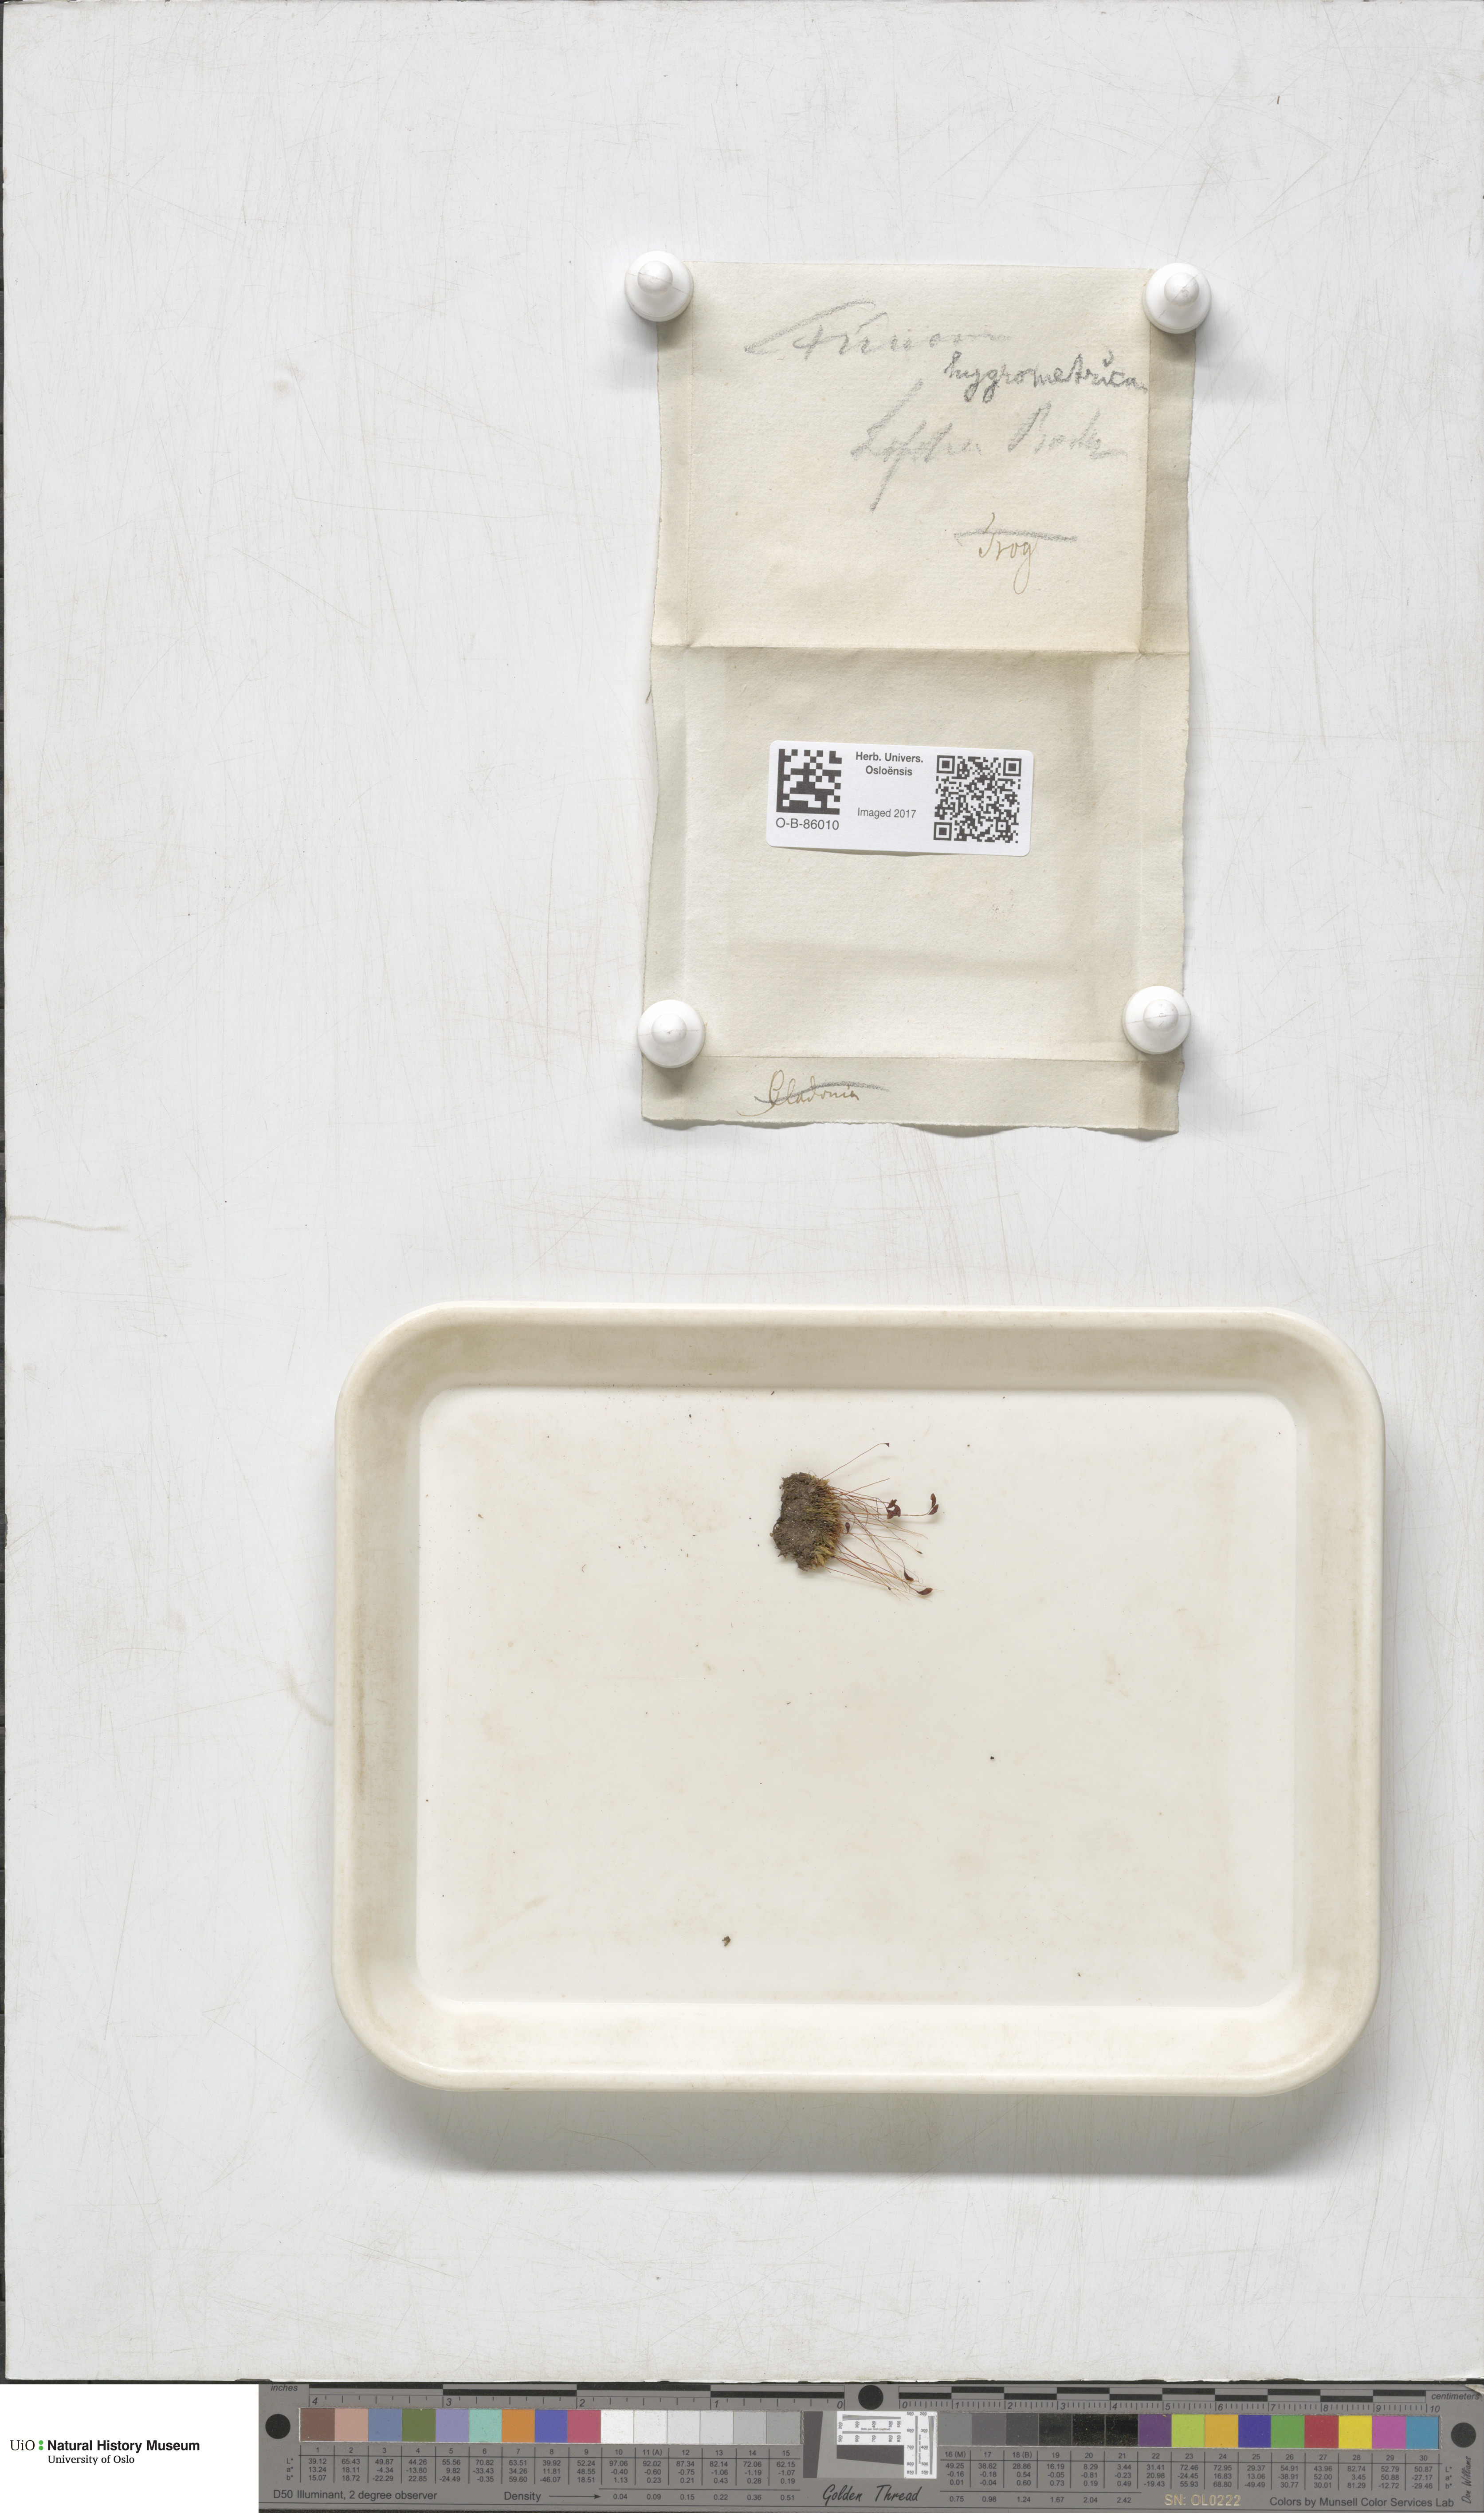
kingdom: Plantae
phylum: Bryophyta
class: Bryopsida
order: Funariales
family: Funariaceae
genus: Funaria
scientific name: Funaria hygrometrica
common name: Common cord moss
